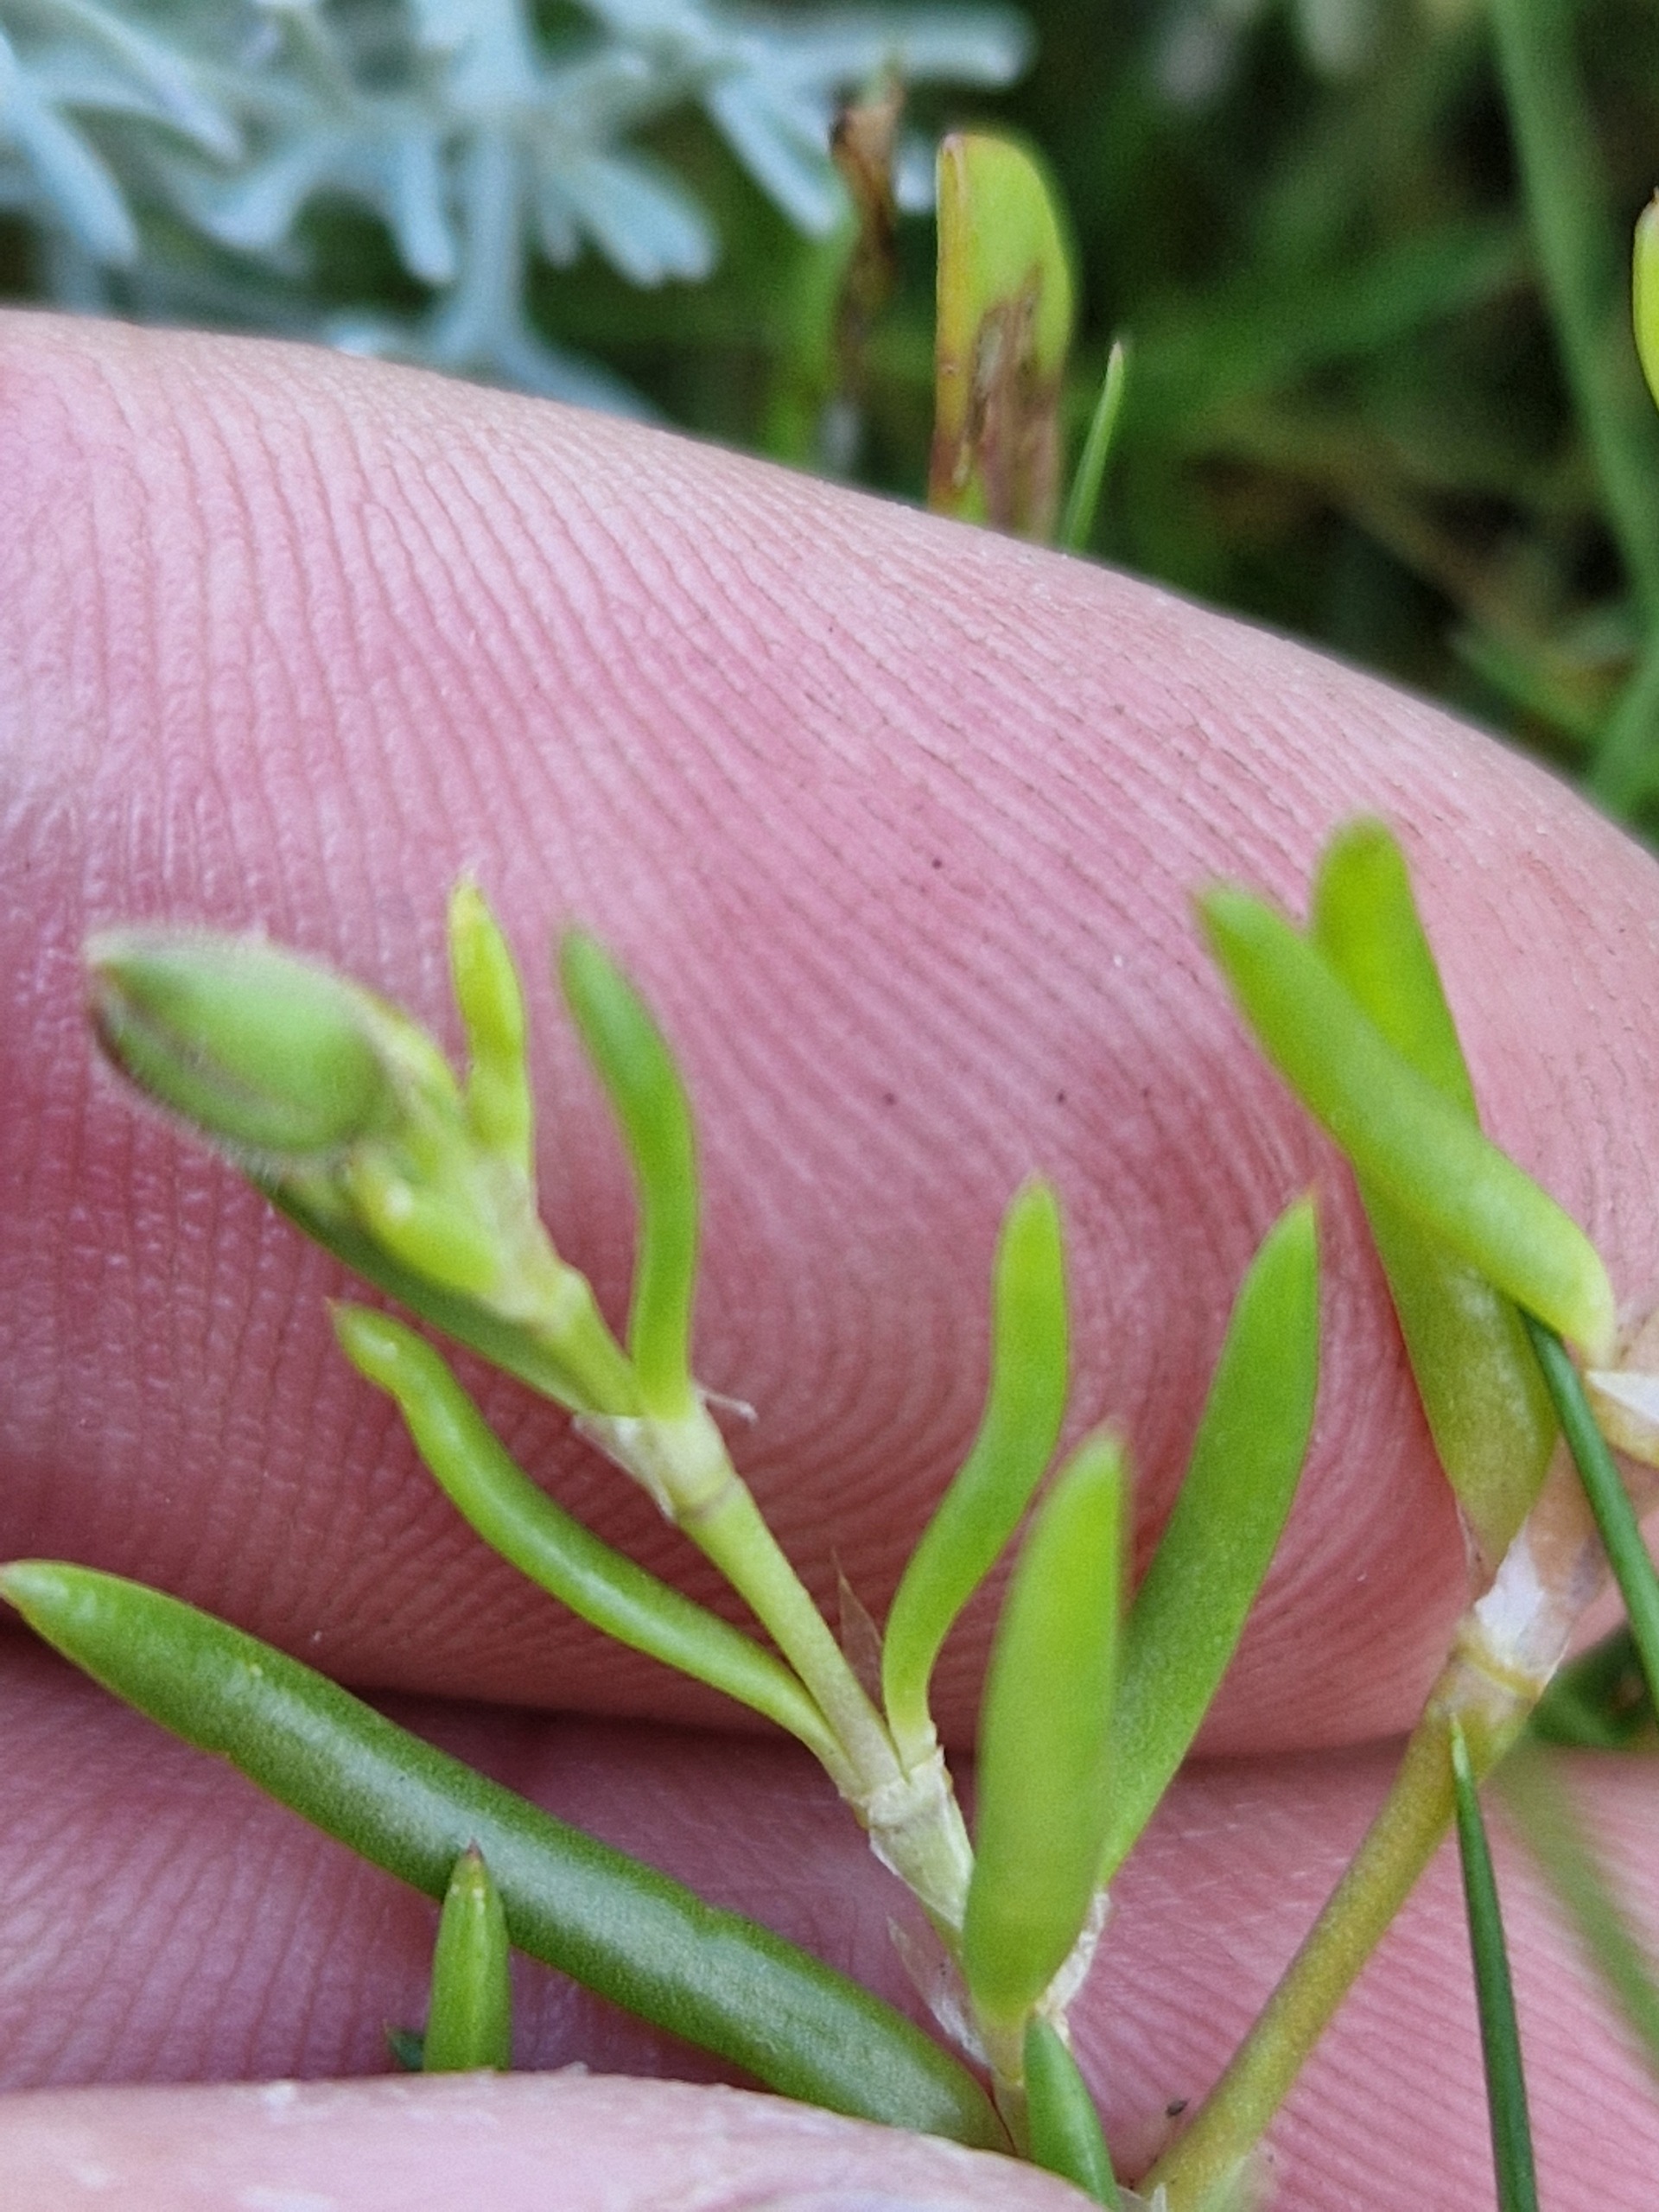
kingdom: Plantae
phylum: Tracheophyta
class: Magnoliopsida
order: Caryophyllales
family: Caryophyllaceae
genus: Spergularia
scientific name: Spergularia media
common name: Vingefrøet hindeknæ
